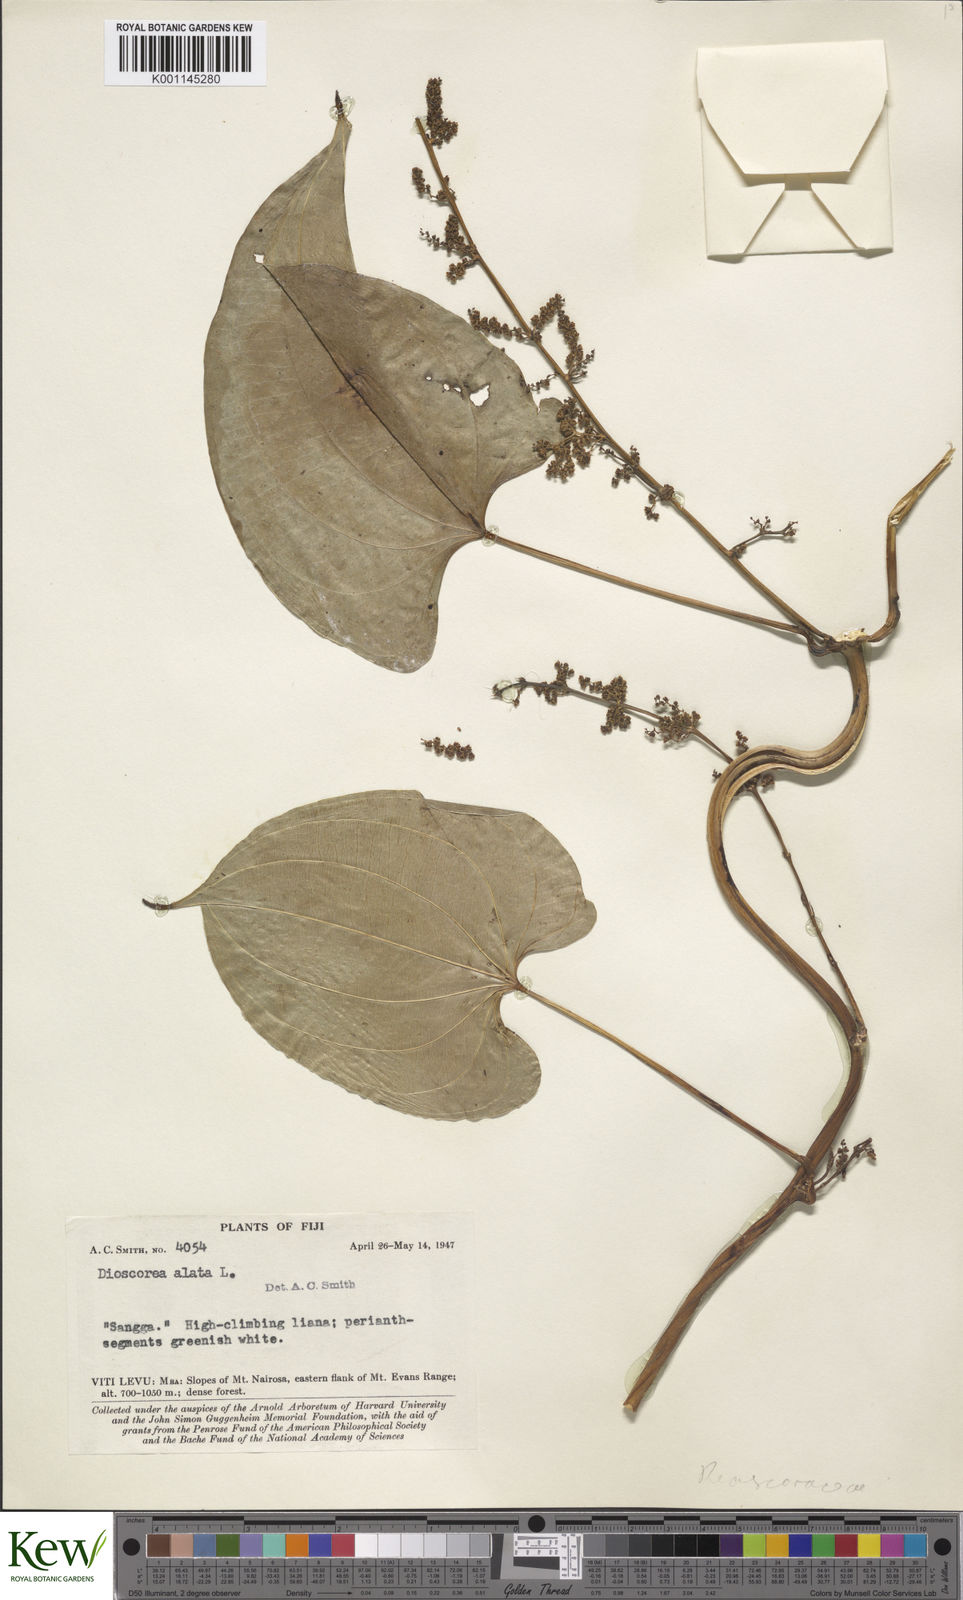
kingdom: Plantae
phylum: Tracheophyta
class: Liliopsida
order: Dioscoreales
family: Dioscoreaceae
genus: Dioscorea
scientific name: Dioscorea alata
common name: Water yam
